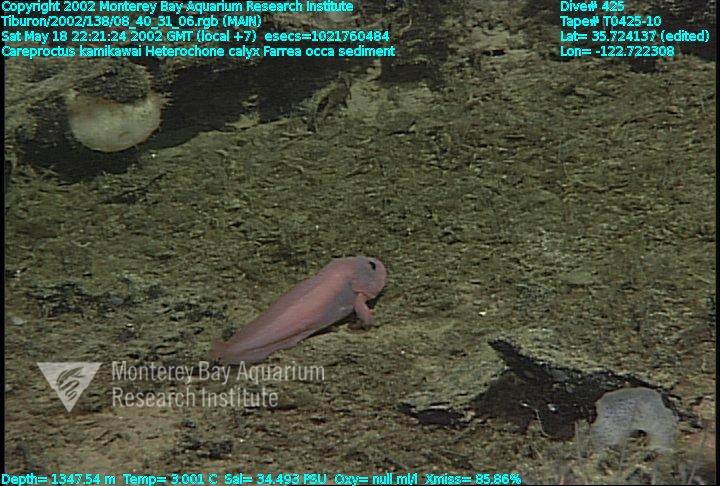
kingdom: Animalia
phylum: Porifera
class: Hexactinellida
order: Sceptrulophora
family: Farreidae
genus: Farrea
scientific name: Farrea occa
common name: Reversed glass sponge
